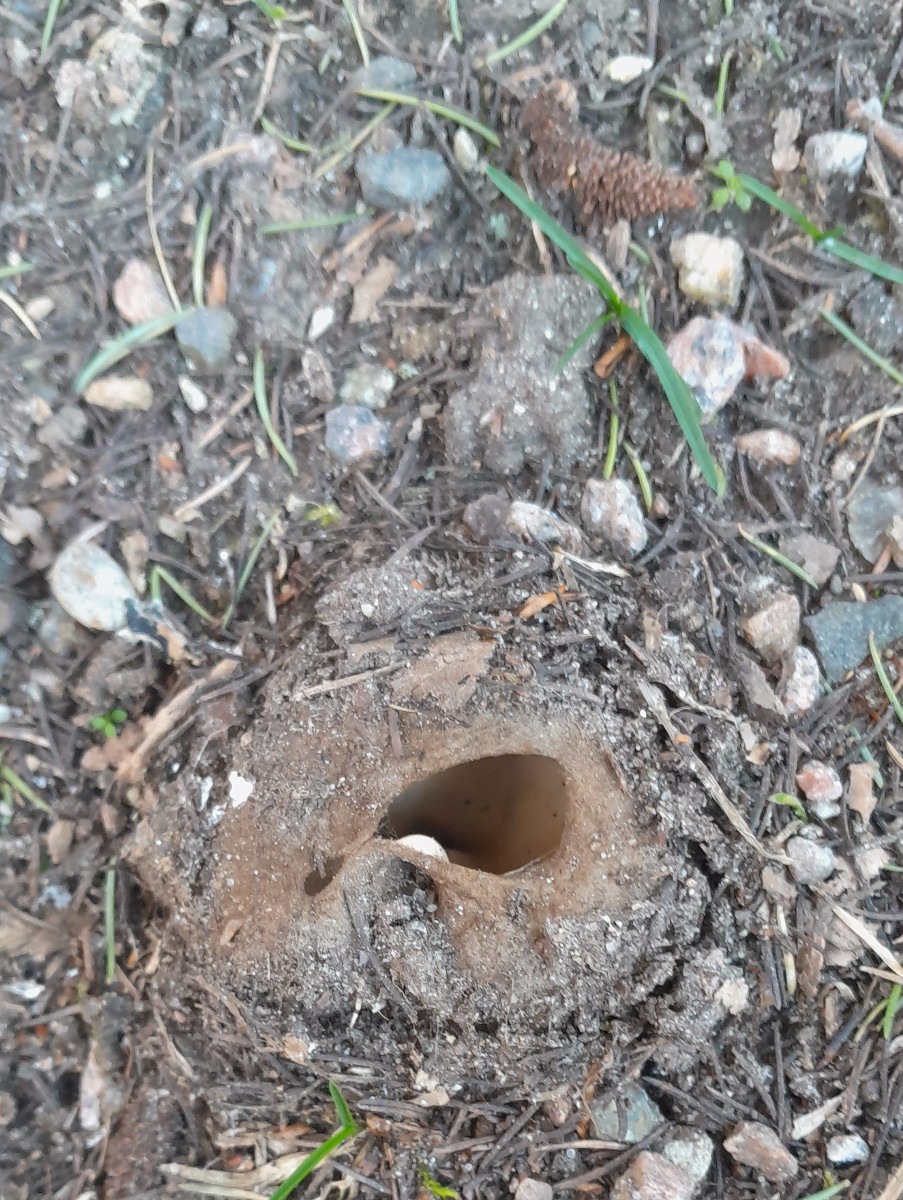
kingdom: Fungi
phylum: Ascomycota
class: Pezizomycetes
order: Pezizales
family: Pyronemataceae
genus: Geopora
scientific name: Geopora sumneriana
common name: vår-jordbæger
